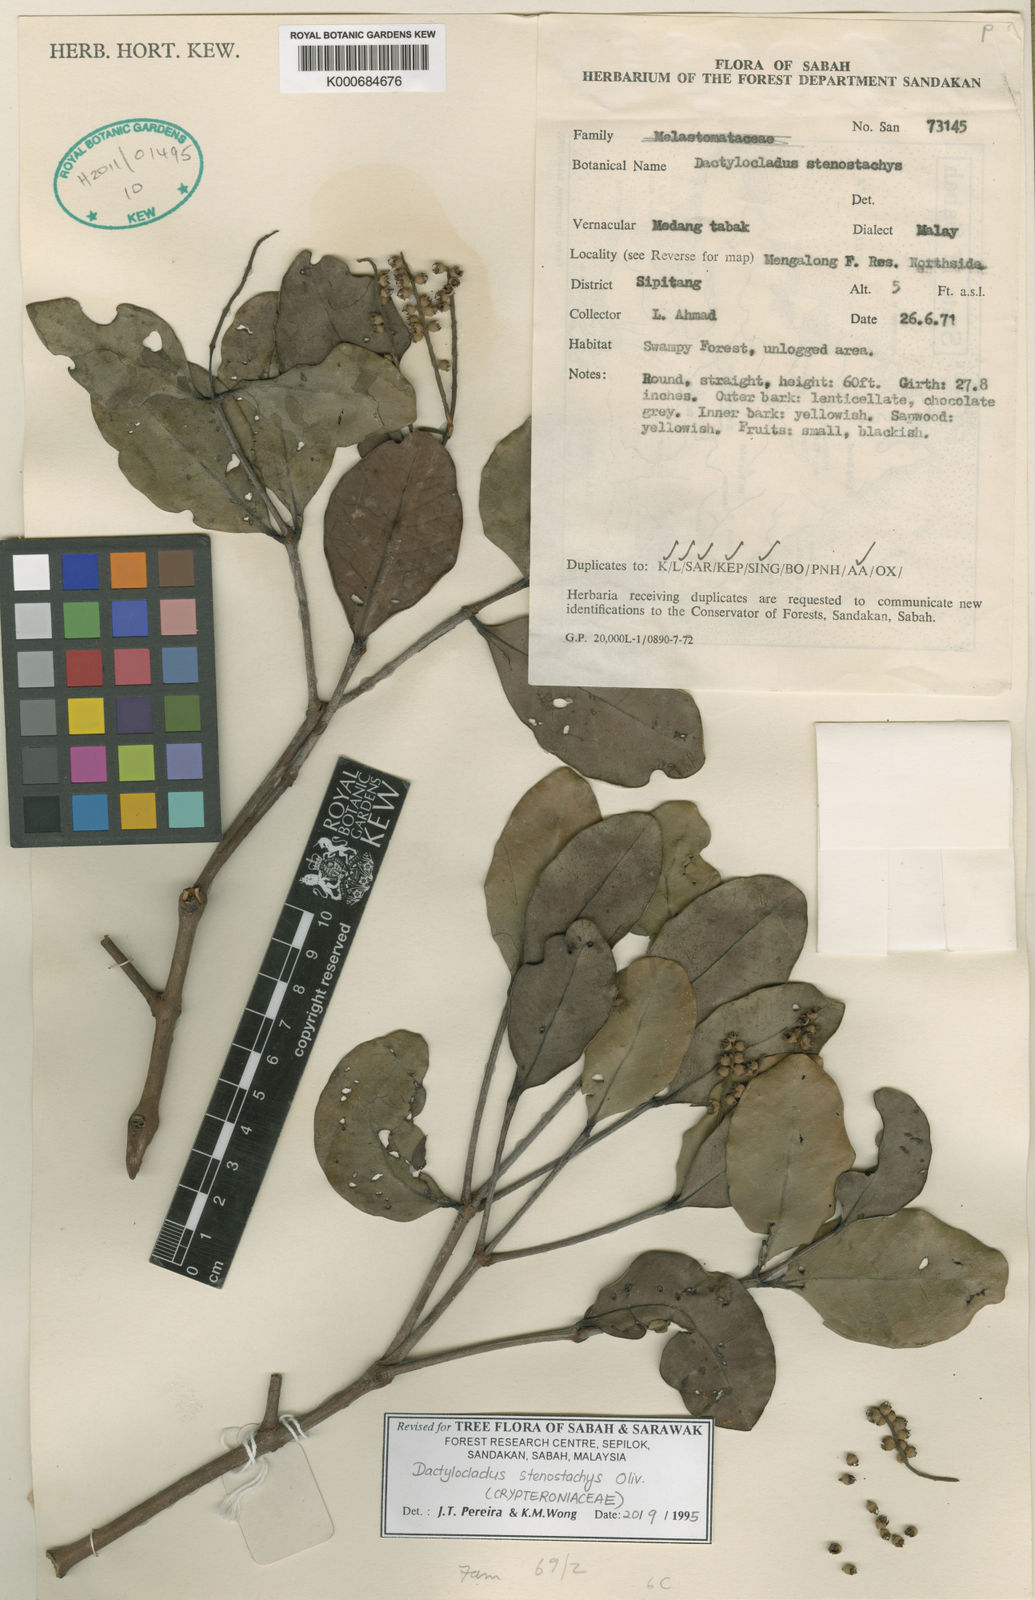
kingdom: Plantae
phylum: Tracheophyta
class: Magnoliopsida
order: Myrtales
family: Crypteroniaceae
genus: Dactylocladus
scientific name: Dactylocladus stenostachys
